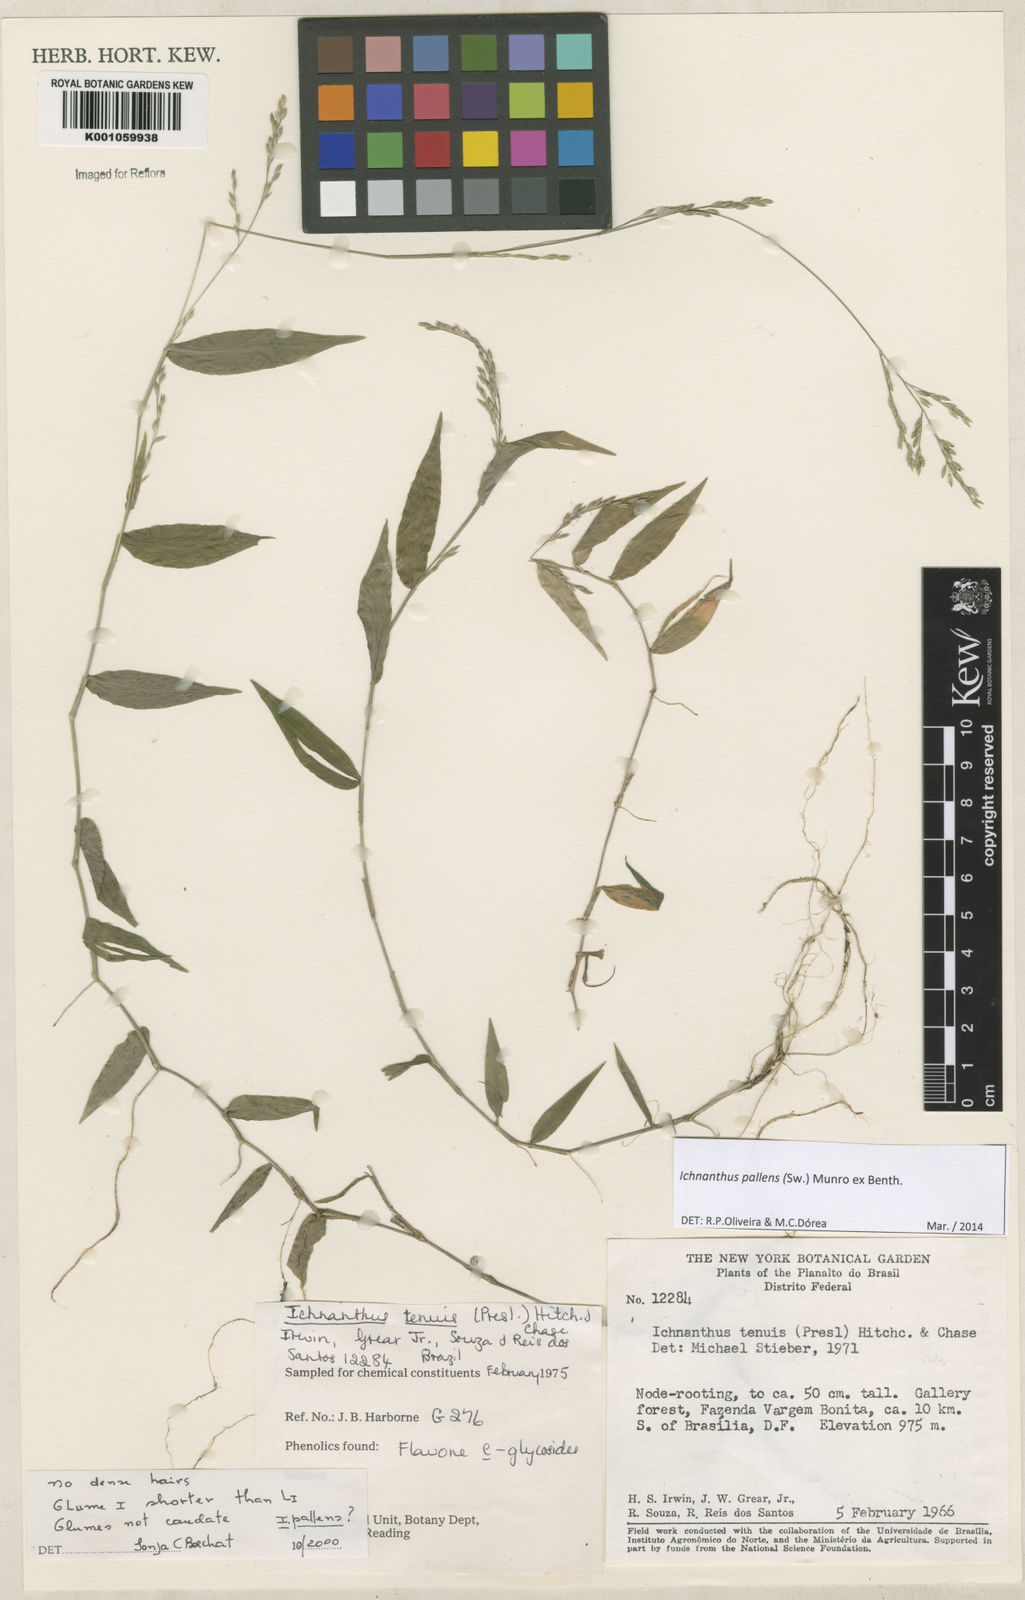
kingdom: Plantae
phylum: Tracheophyta
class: Liliopsida
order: Poales
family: Poaceae
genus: Ichnanthus
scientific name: Ichnanthus pallens
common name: Water grass
